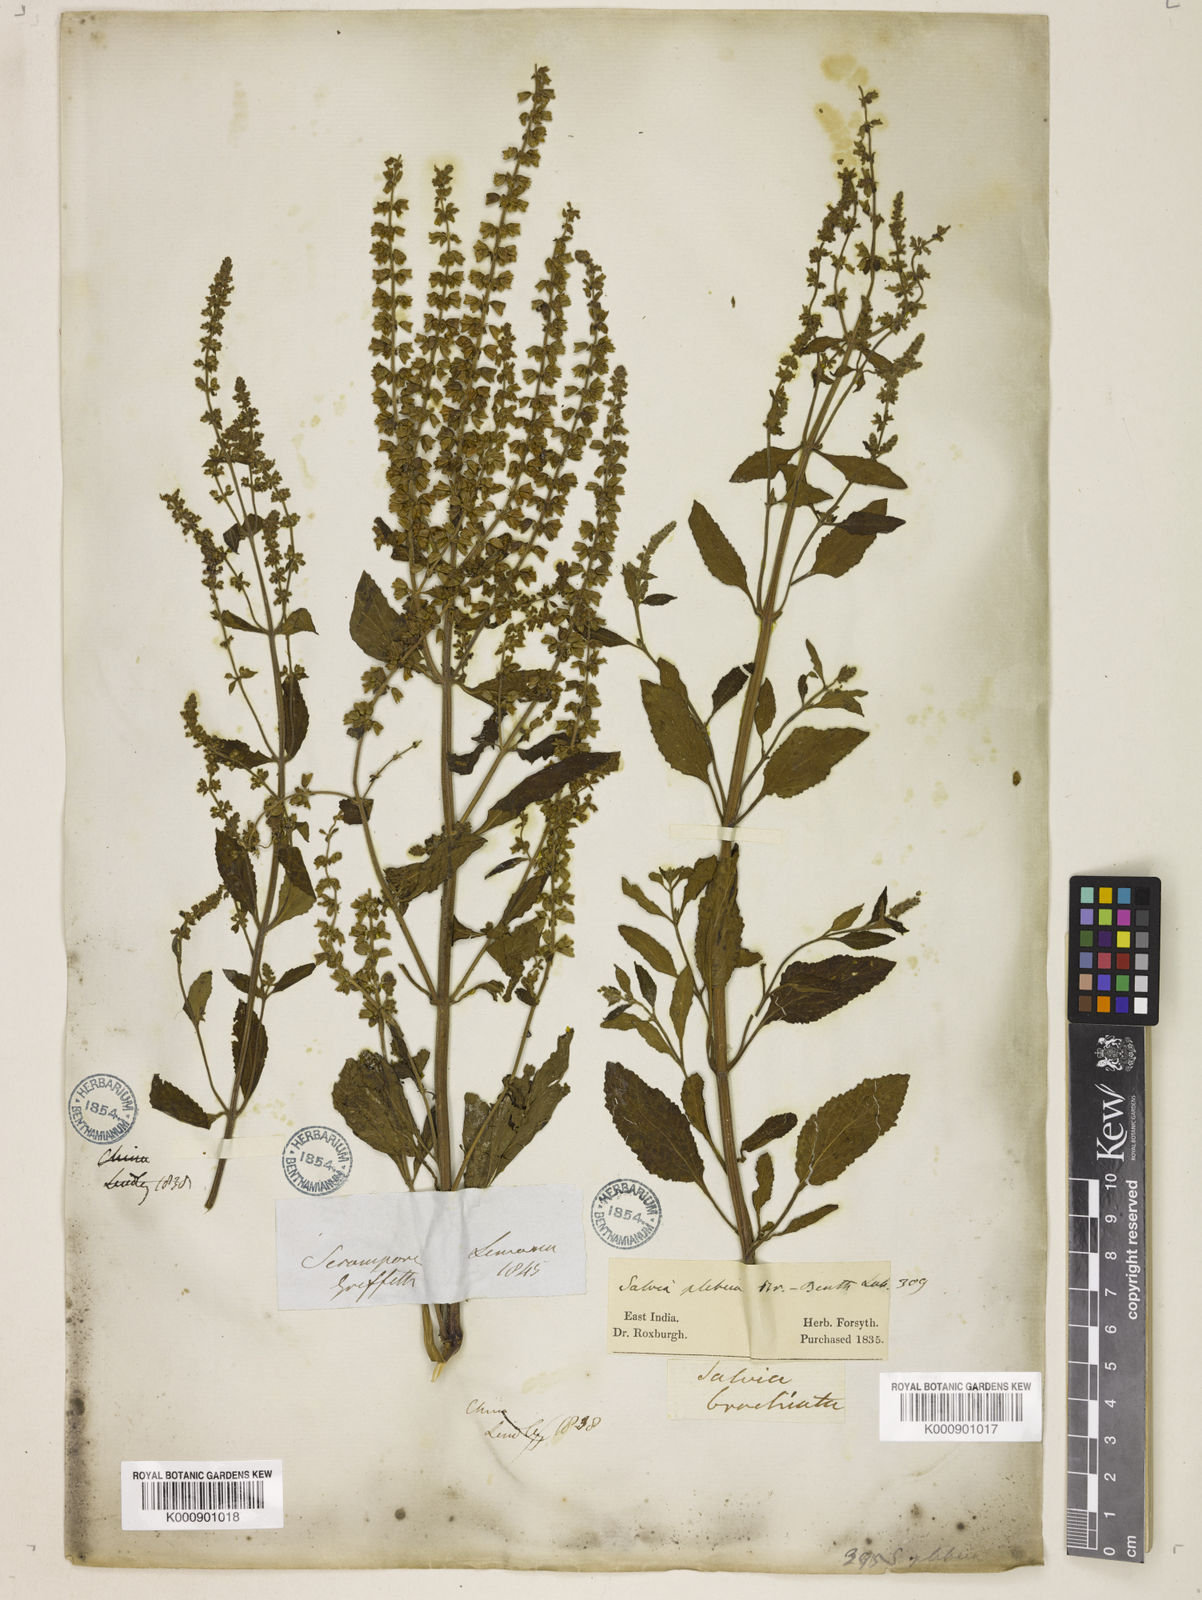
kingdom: Plantae
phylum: Tracheophyta
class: Magnoliopsida
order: Lamiales
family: Lamiaceae
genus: Salvia
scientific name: Salvia plebeia
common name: Australian sage
